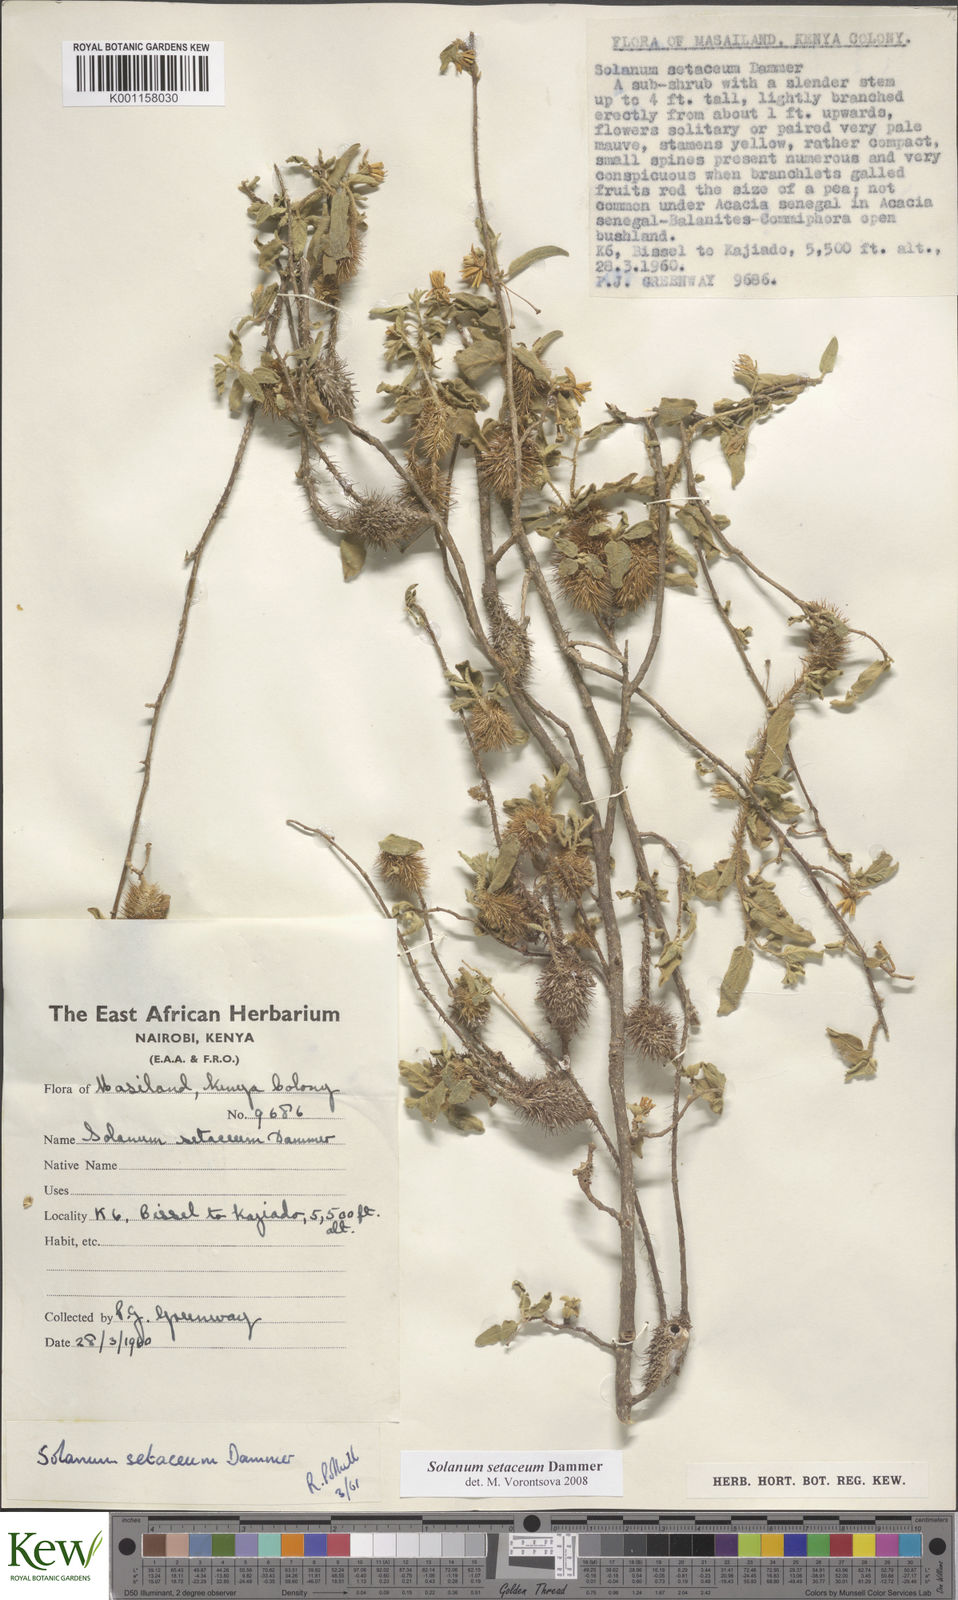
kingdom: Plantae
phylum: Tracheophyta
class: Magnoliopsida
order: Solanales
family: Solanaceae
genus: Solanum
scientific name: Solanum setaceum
